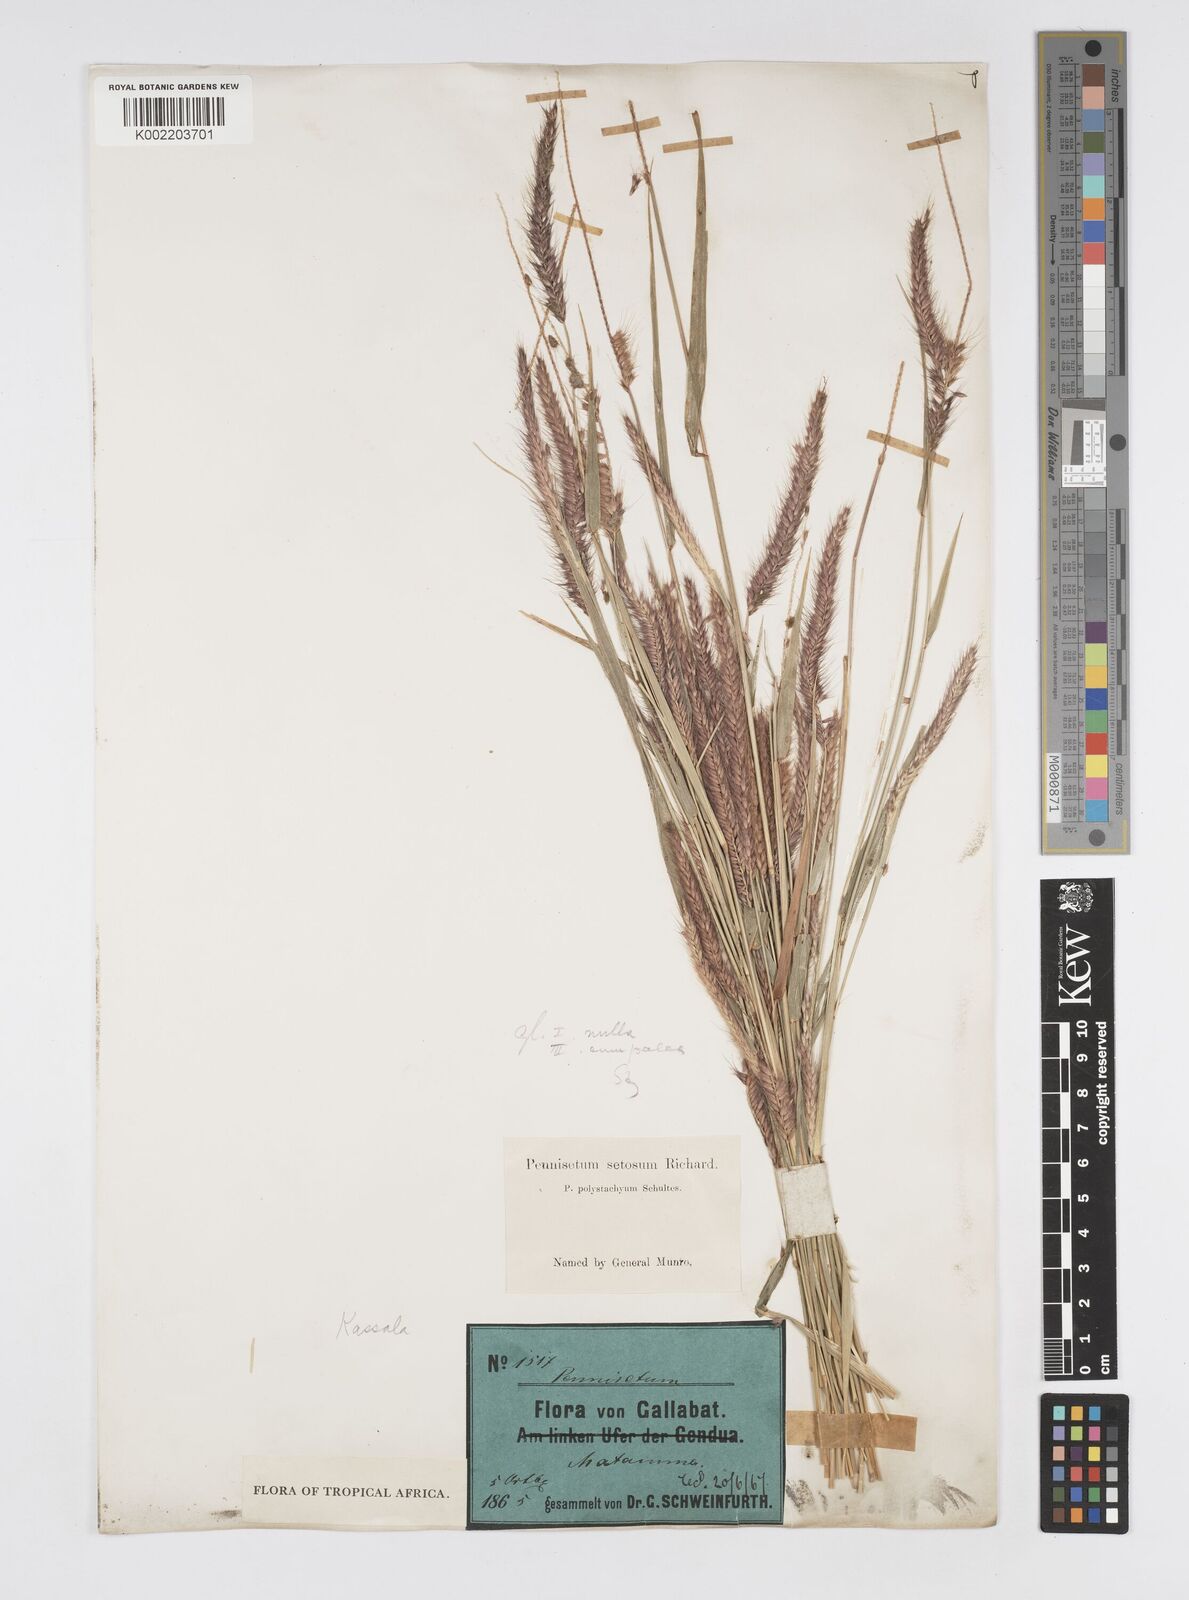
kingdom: Plantae
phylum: Tracheophyta
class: Liliopsida
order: Poales
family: Poaceae
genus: Setaria
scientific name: Setaria parviflora
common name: Knotroot bristle-grass
